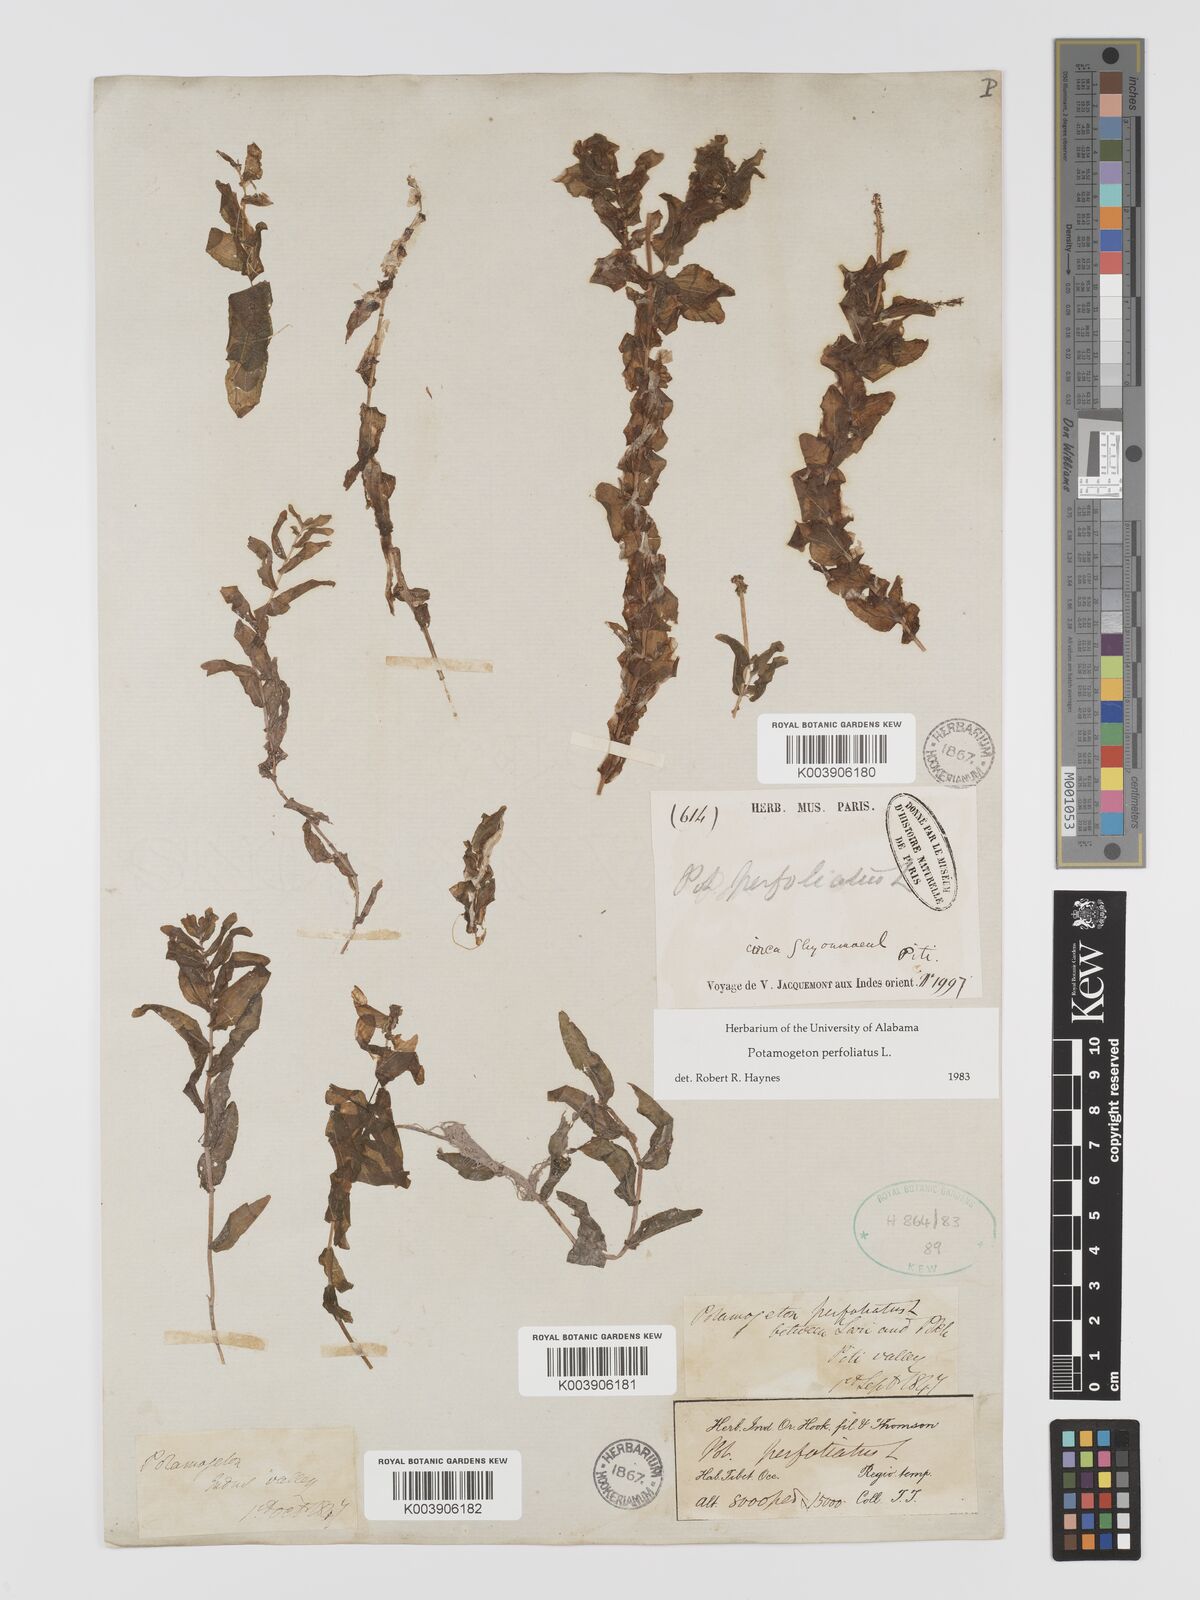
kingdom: Plantae
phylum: Tracheophyta
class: Liliopsida
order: Alismatales
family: Potamogetonaceae
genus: Potamogeton
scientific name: Potamogeton perfoliatus
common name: Perfoliate pondweed
